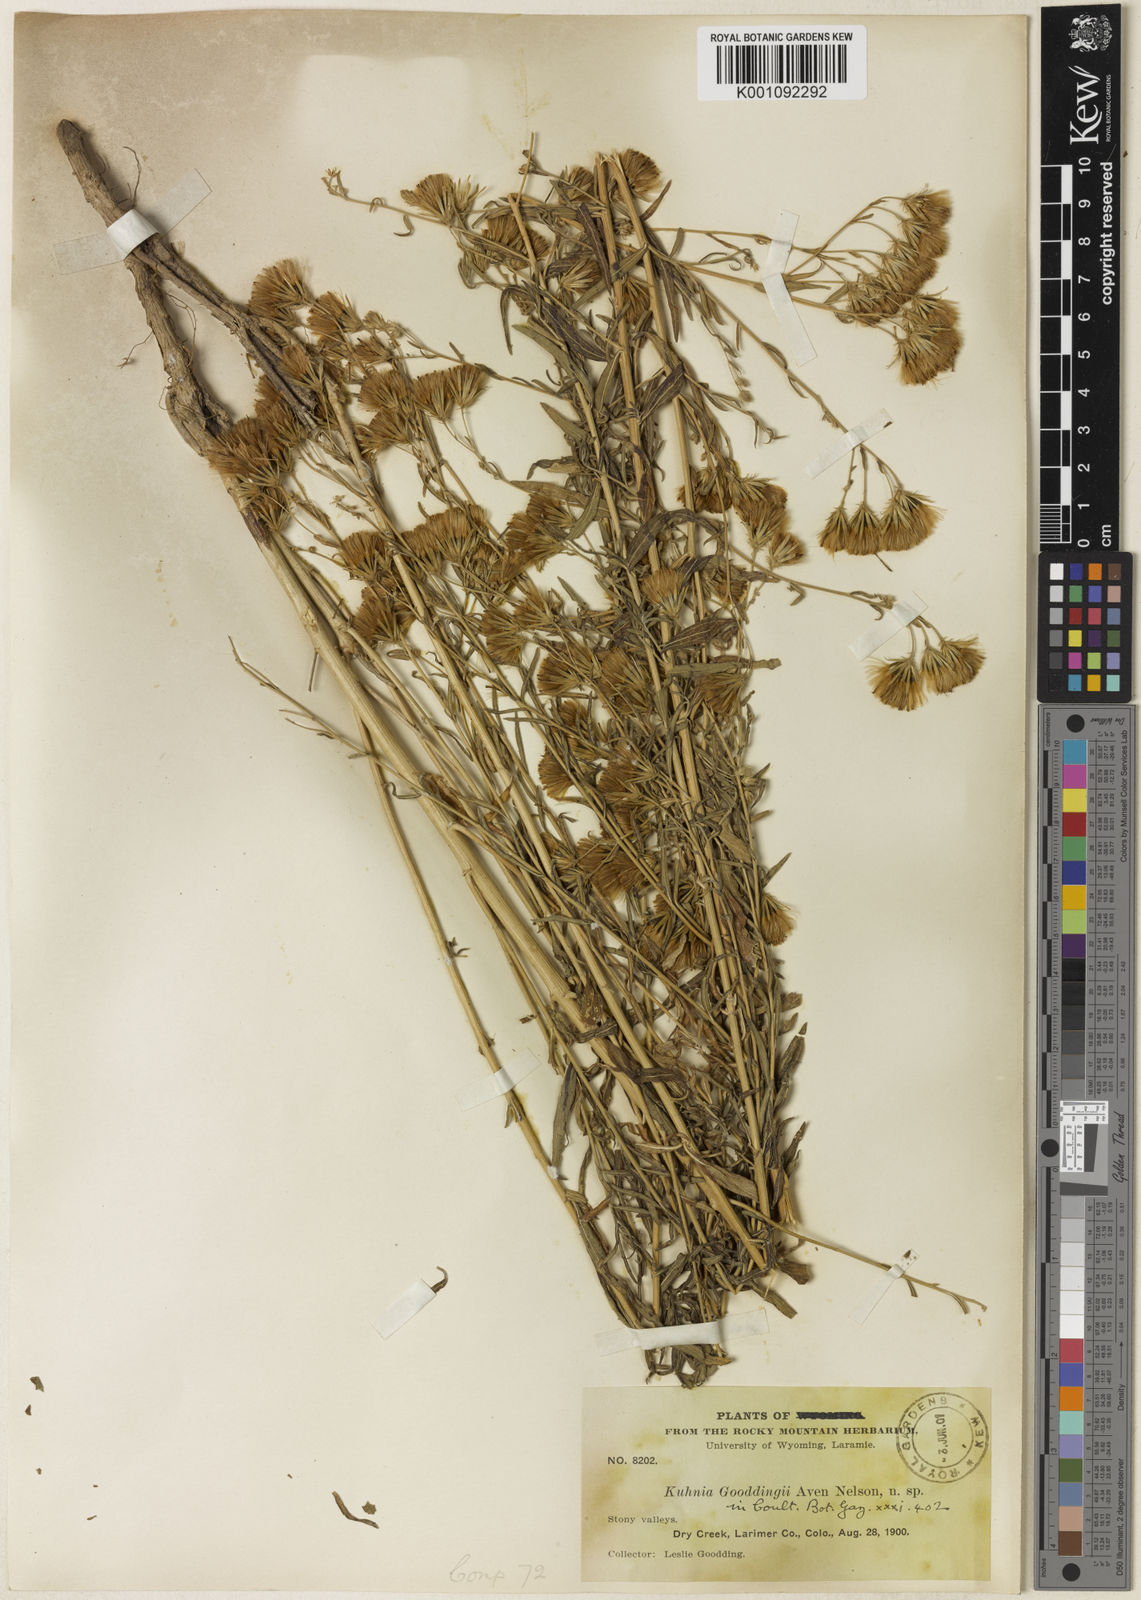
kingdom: Plantae
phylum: Tracheophyta
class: Magnoliopsida
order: Asterales
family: Asteraceae
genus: Brickellia
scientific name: Brickellia
